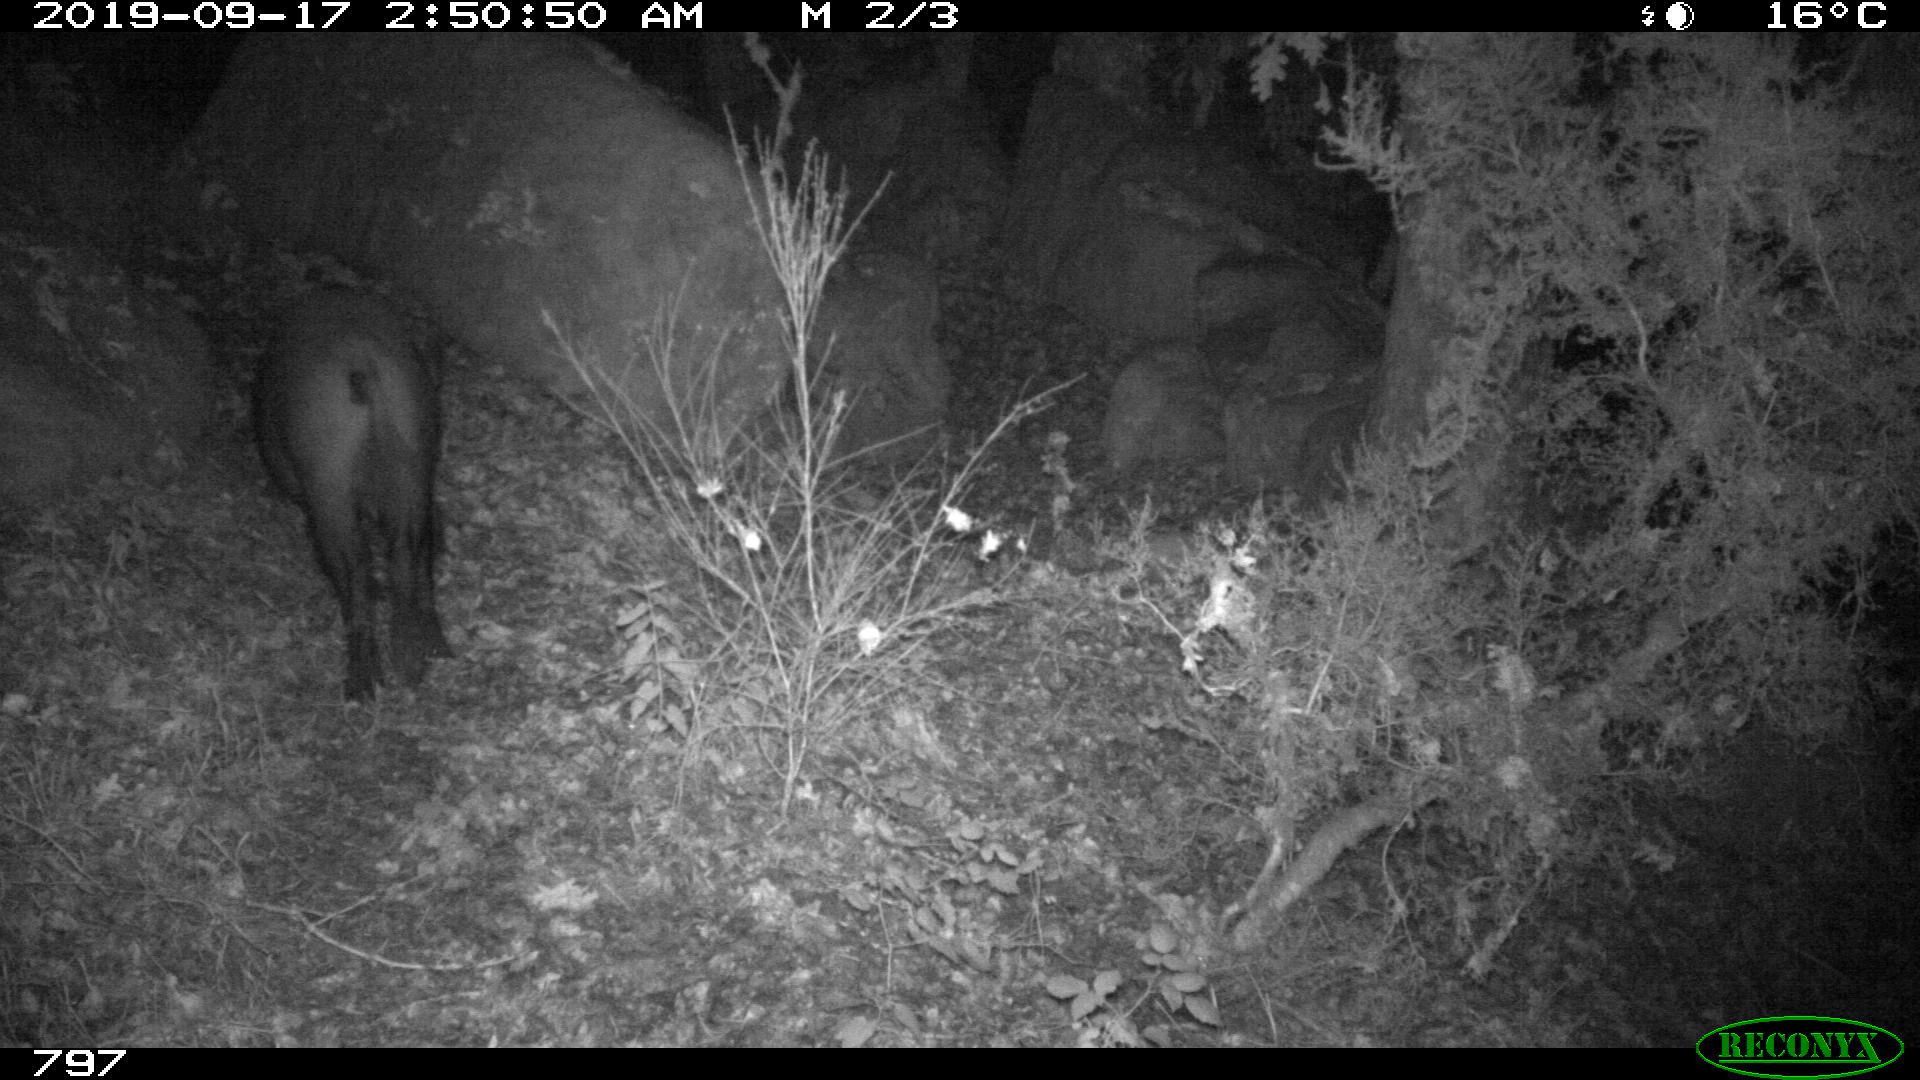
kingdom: Animalia
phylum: Chordata
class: Mammalia
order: Artiodactyla
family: Suidae
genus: Sus
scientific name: Sus scrofa
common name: Wild boar
